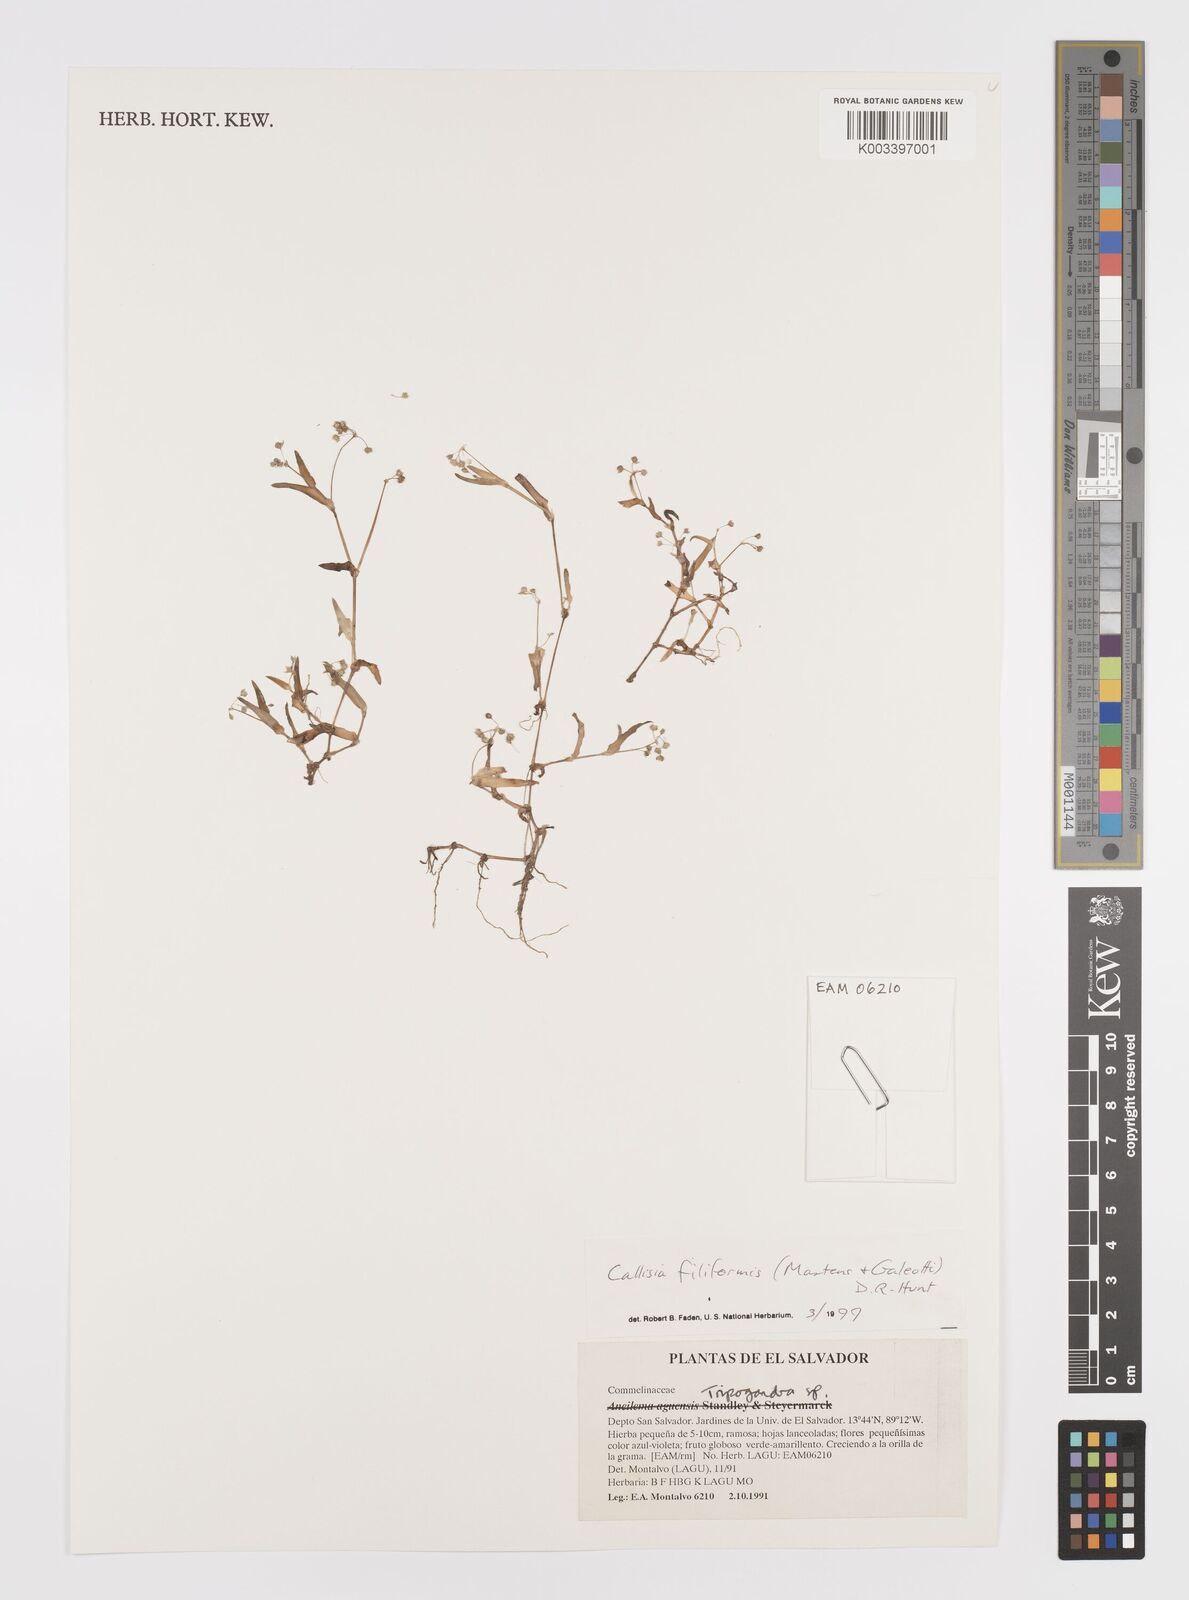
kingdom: Plantae
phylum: Tracheophyta
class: Liliopsida
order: Commelinales
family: Commelinaceae
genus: Callisia
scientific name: Callisia filiformis
